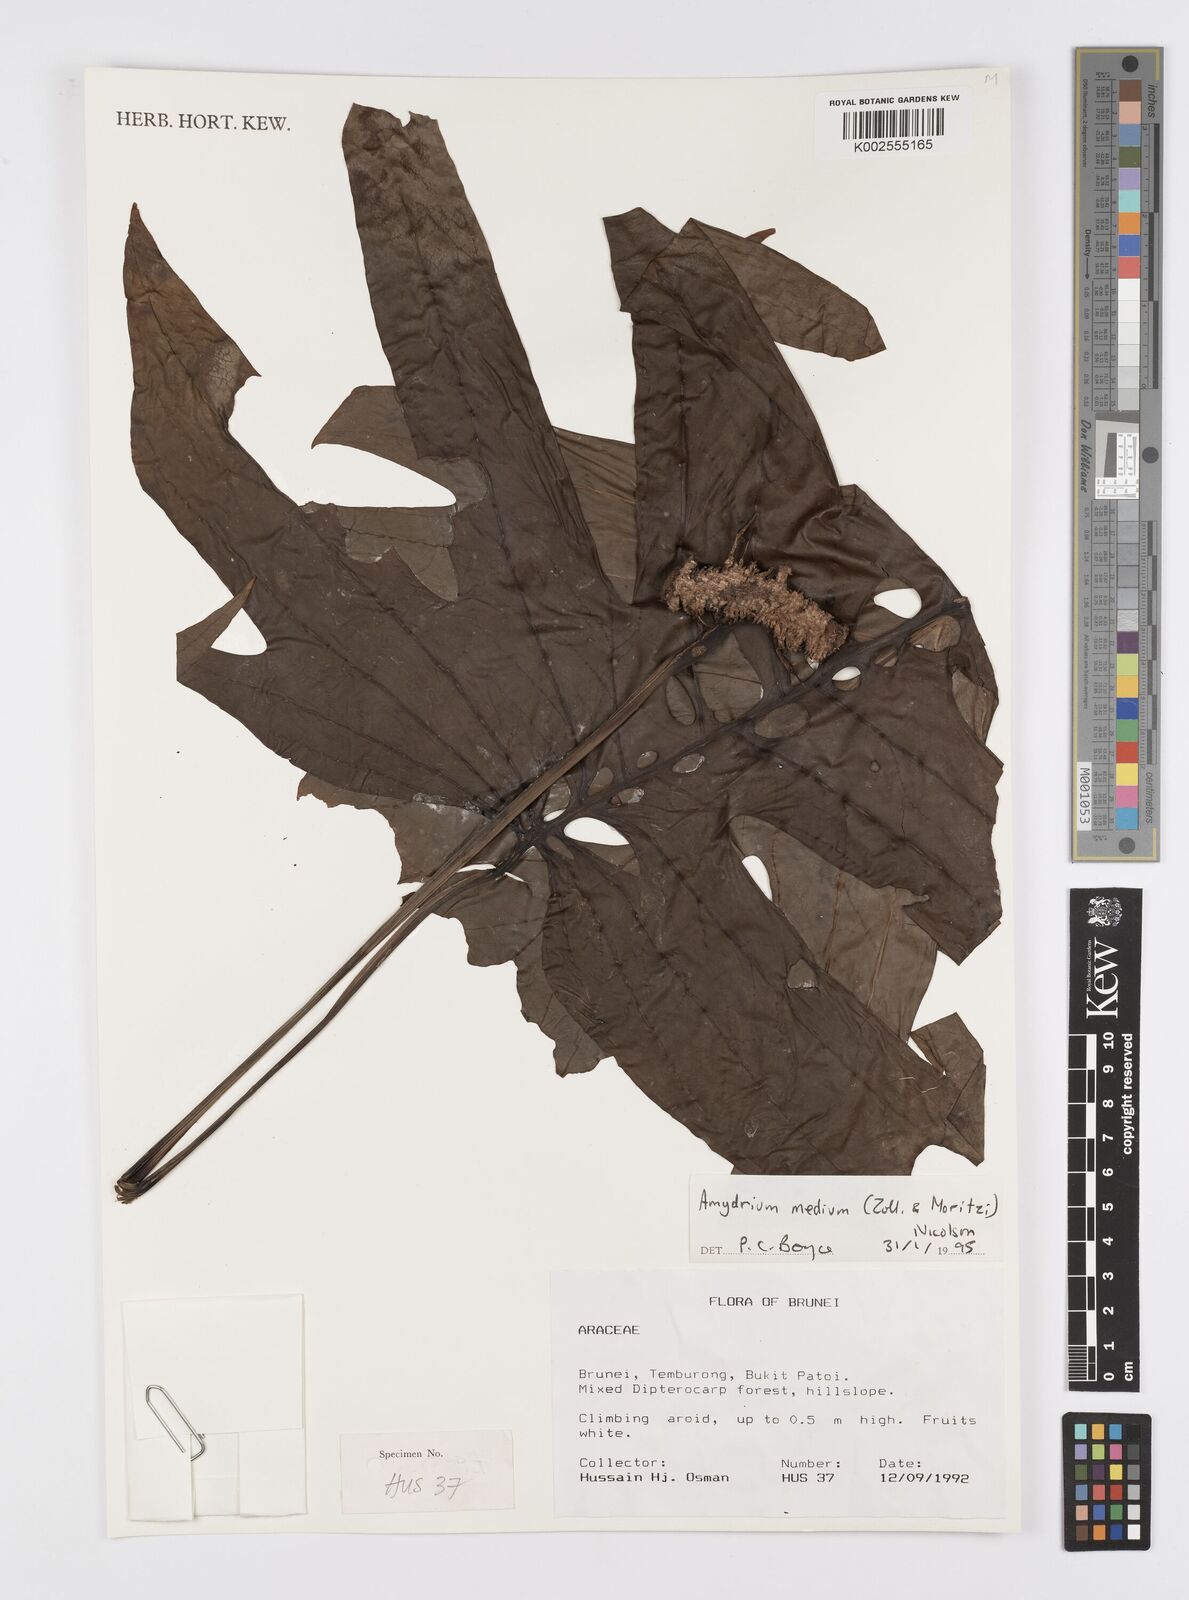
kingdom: Plantae
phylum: Tracheophyta
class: Liliopsida
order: Alismatales
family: Araceae
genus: Amydrium
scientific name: Amydrium medium
